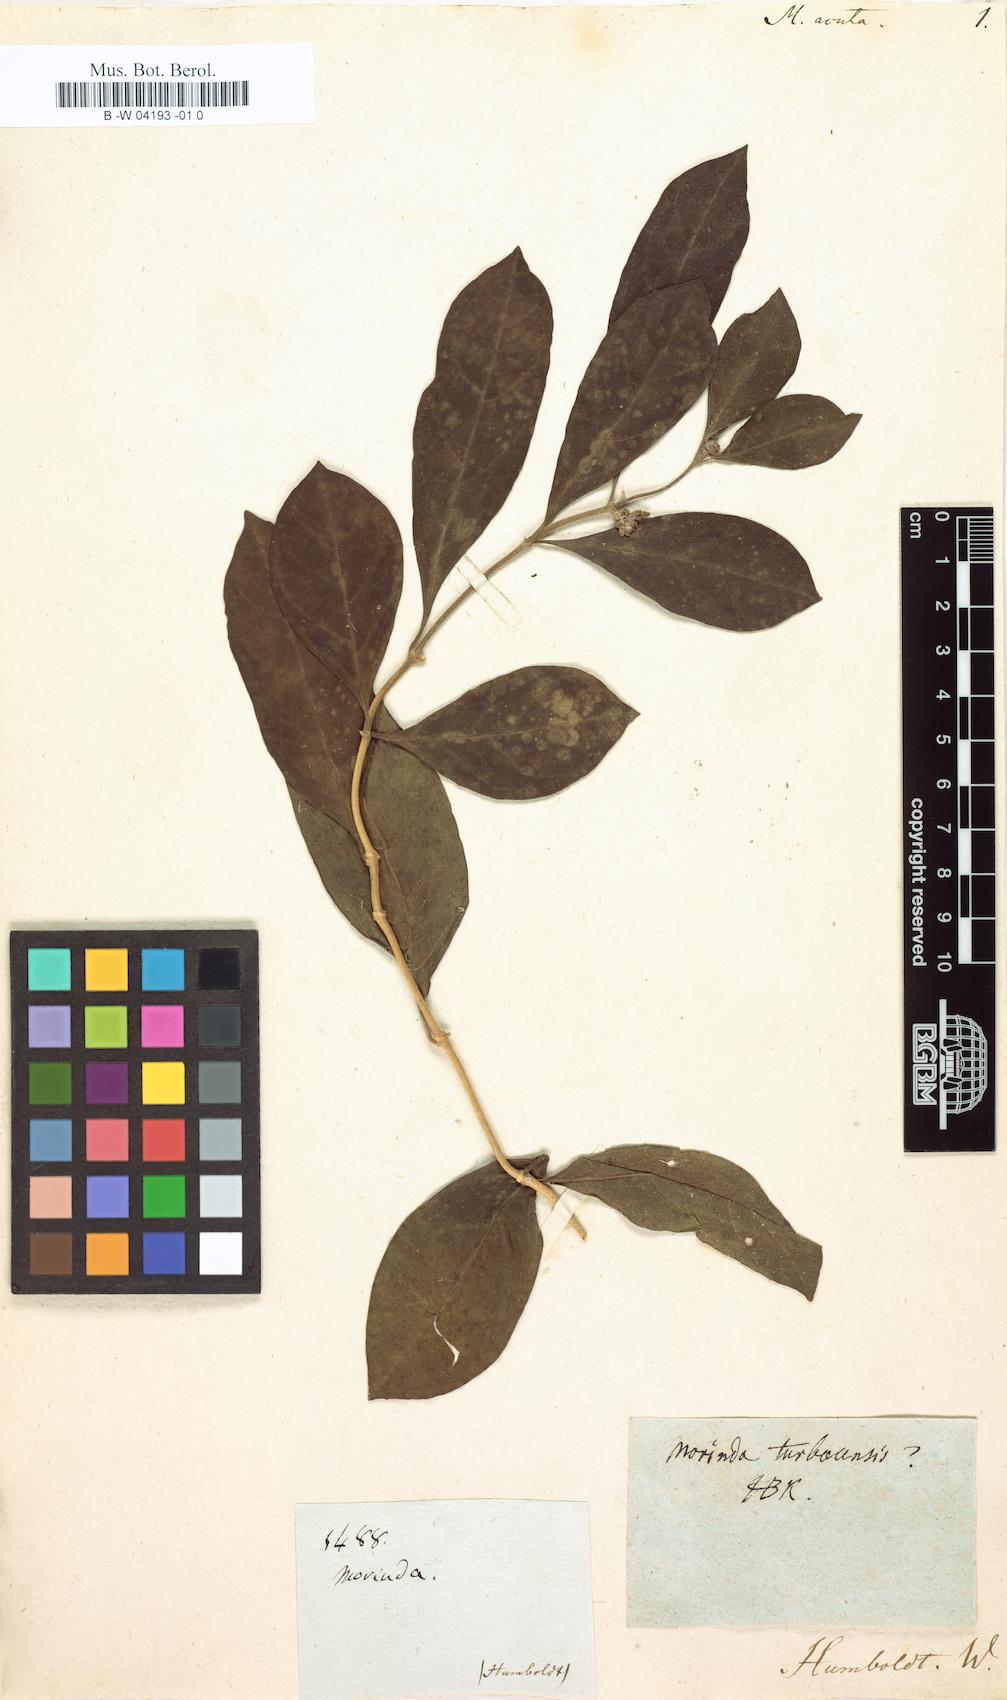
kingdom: Plantae
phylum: Tracheophyta
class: Magnoliopsida
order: Gentianales
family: Rubiaceae
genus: Morinda
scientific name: Morinda
